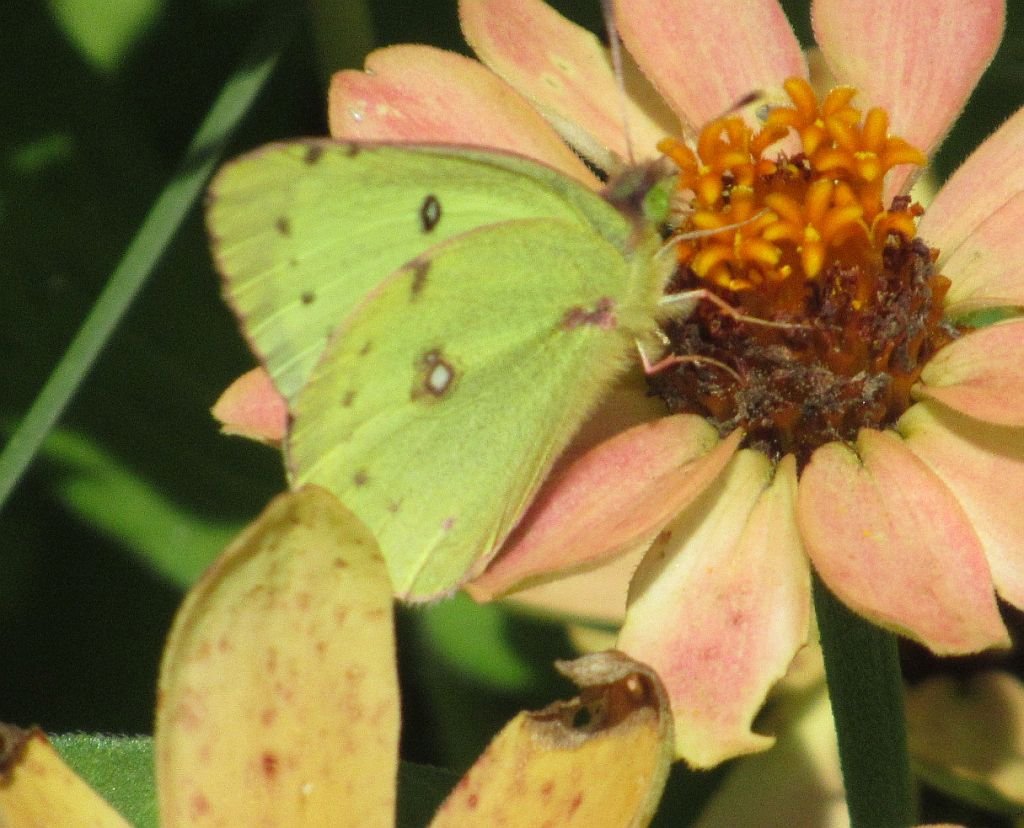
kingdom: Animalia
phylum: Arthropoda
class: Insecta
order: Lepidoptera
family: Pieridae
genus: Colias
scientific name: Colias philodice
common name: Clouded Sulphur
